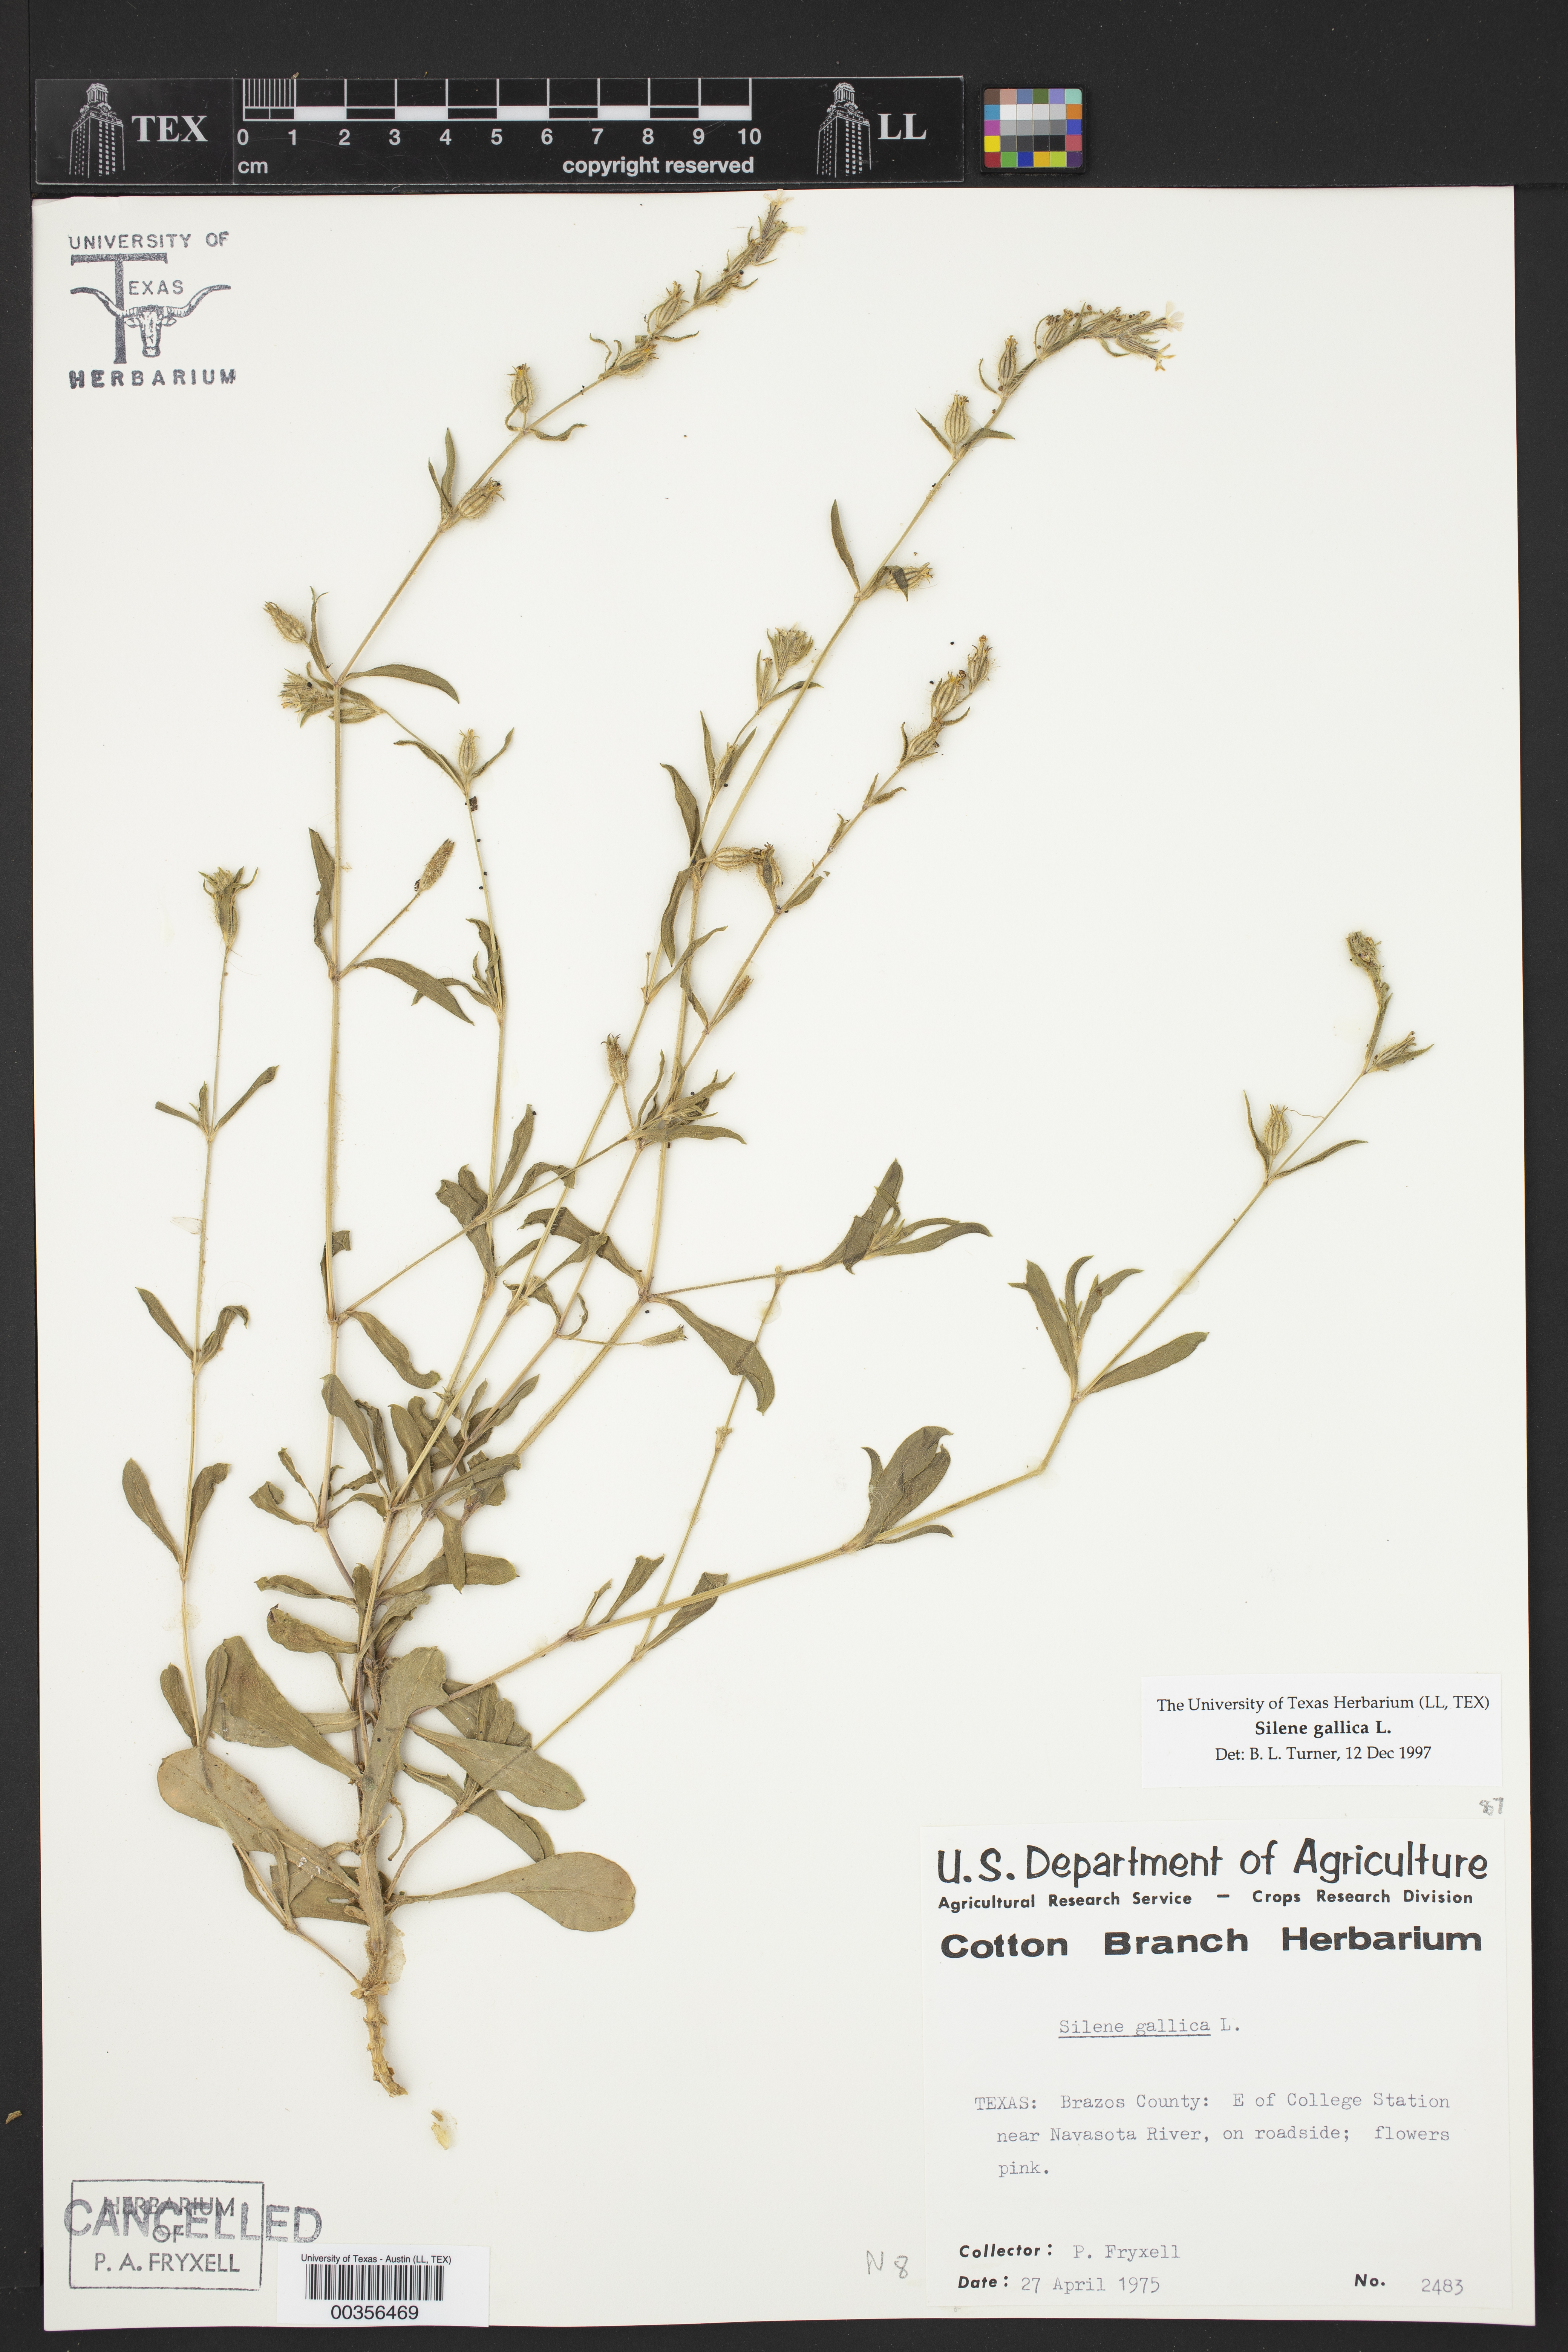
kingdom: Plantae
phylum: Tracheophyta
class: Magnoliopsida
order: Caryophyllales
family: Caryophyllaceae
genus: Silene
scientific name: Silene gallica
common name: Small-flowered catchfly
